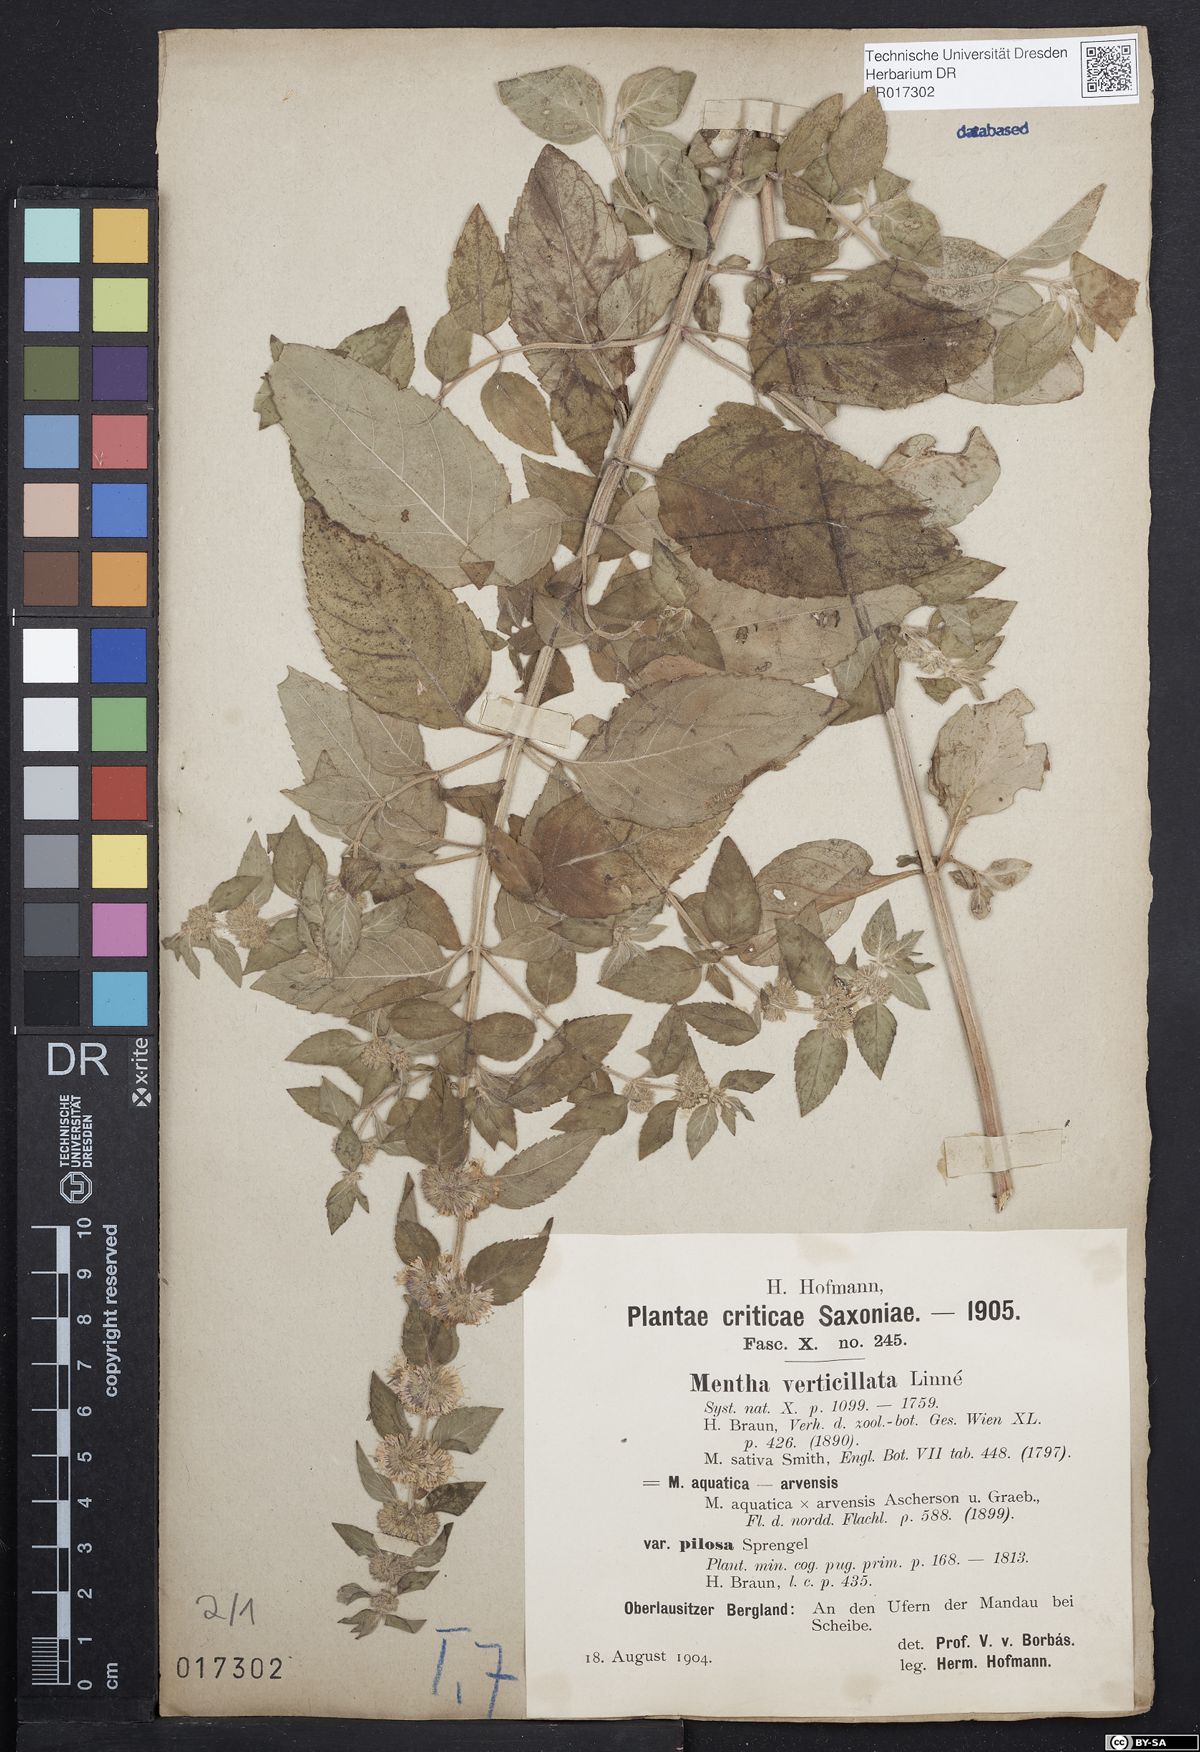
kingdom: Plantae
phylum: Tracheophyta
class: Magnoliopsida
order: Lamiales
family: Lamiaceae
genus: Mentha
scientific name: Mentha verticillata
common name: Mint
